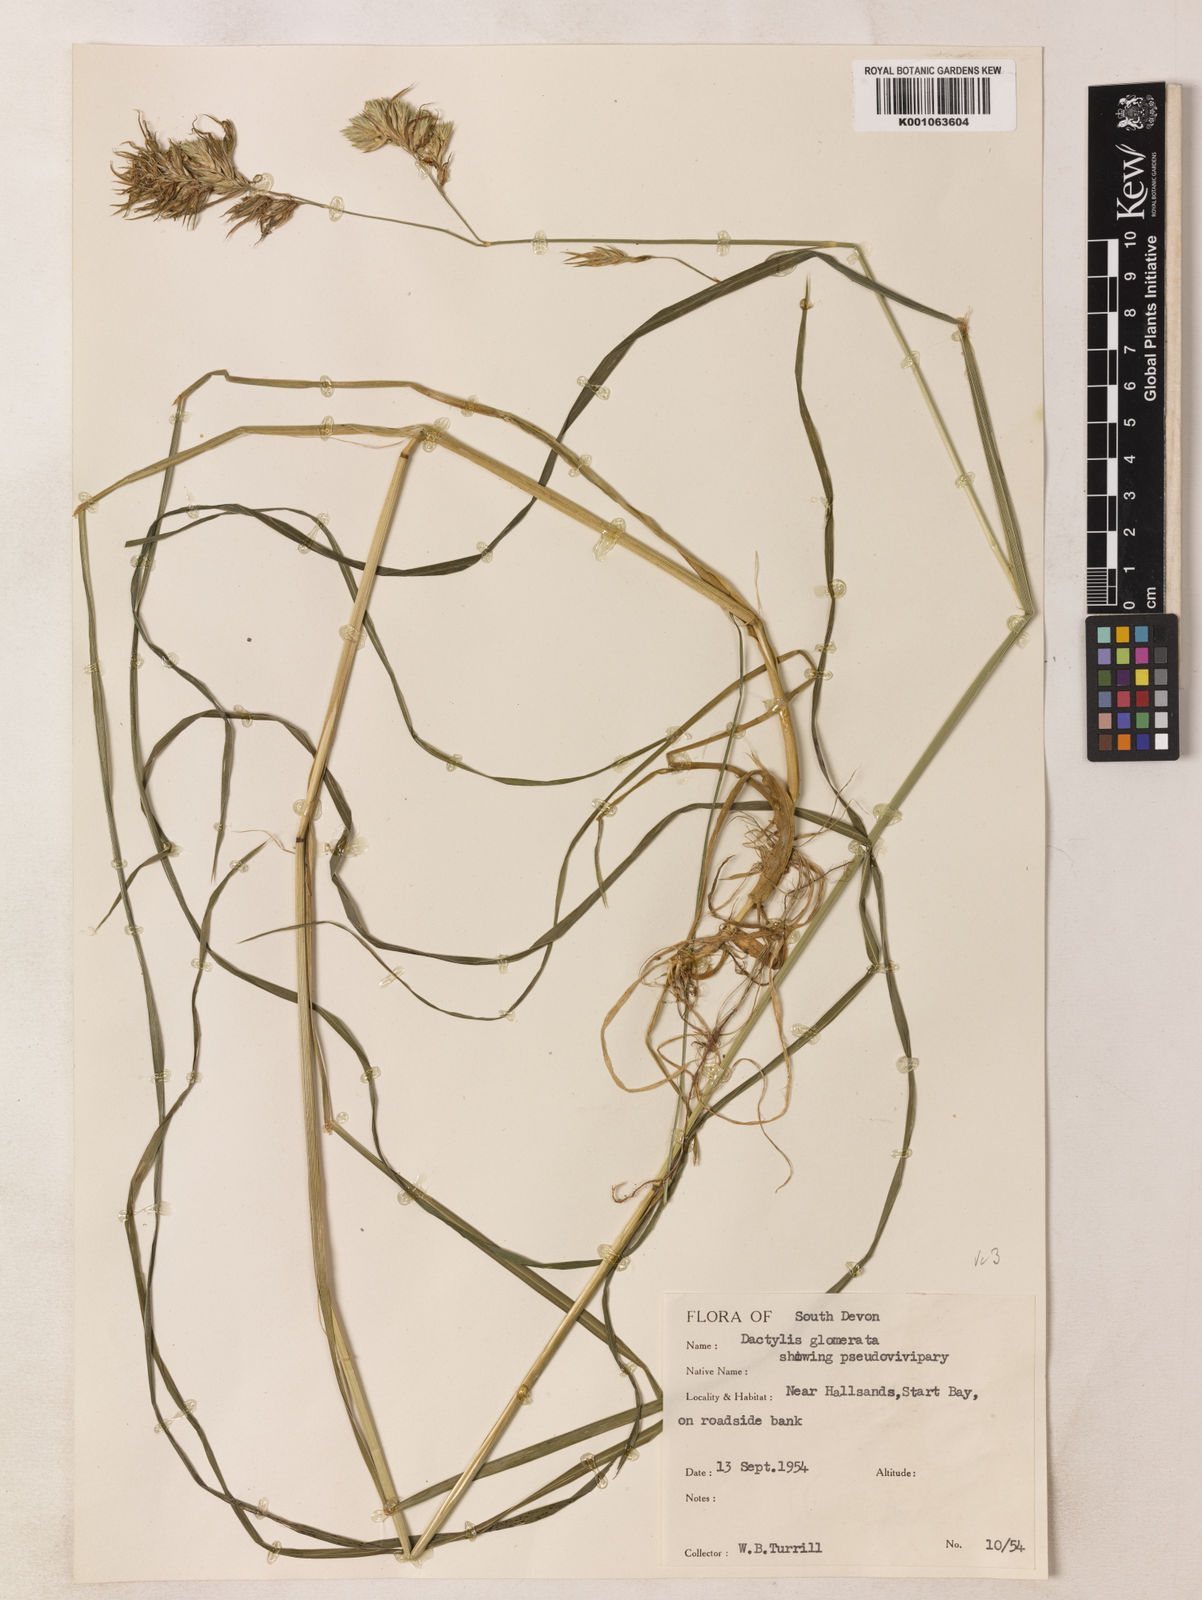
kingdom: Plantae
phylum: Tracheophyta
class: Liliopsida
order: Poales
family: Poaceae
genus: Dactylis
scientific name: Dactylis glomerata
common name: Orchardgrass
